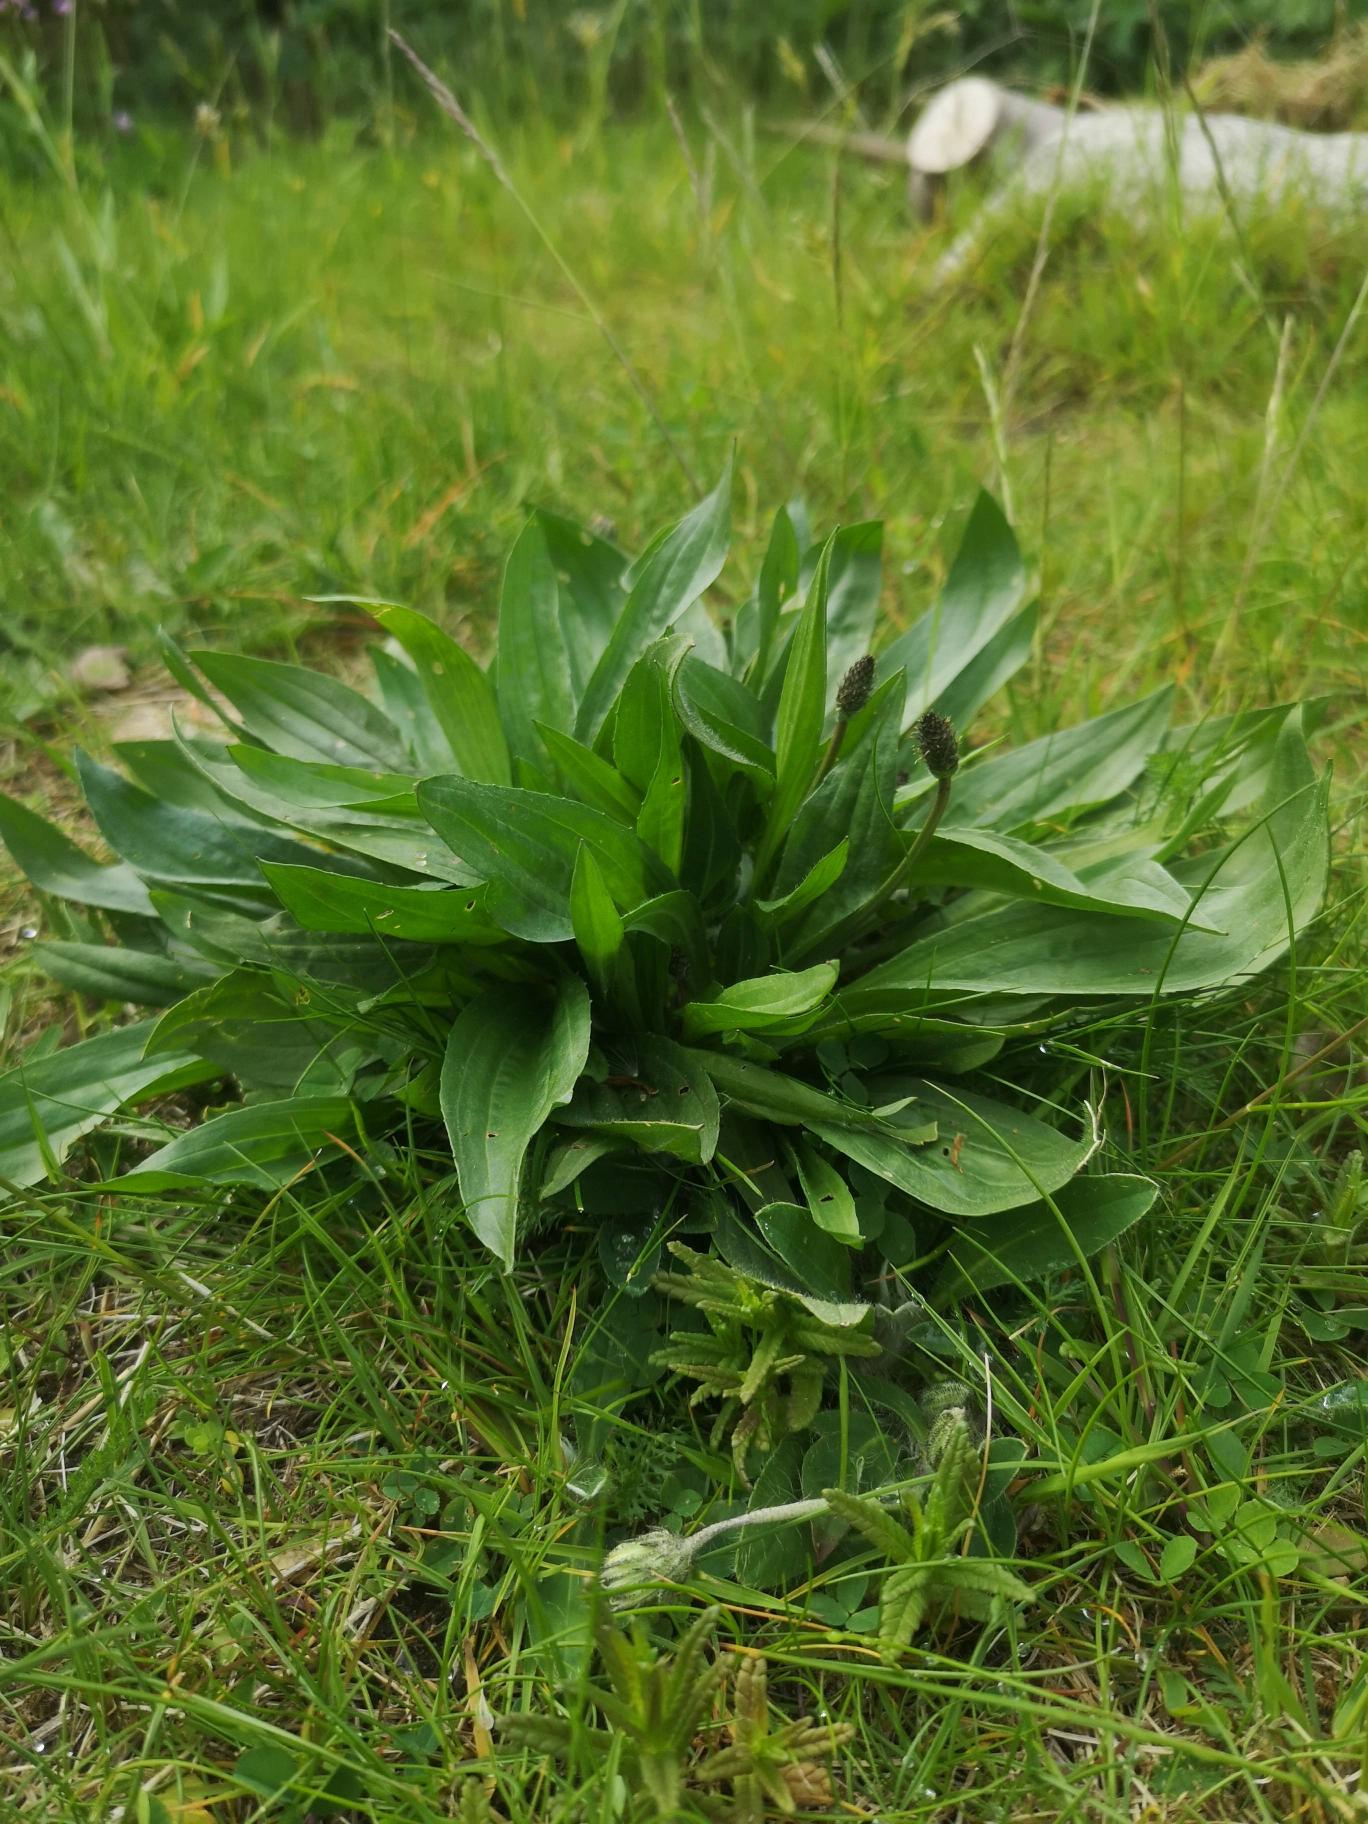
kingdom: Plantae
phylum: Tracheophyta
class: Magnoliopsida
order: Lamiales
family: Plantaginaceae
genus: Plantago
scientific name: Plantago lanceolata
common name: Lancet-vejbred
